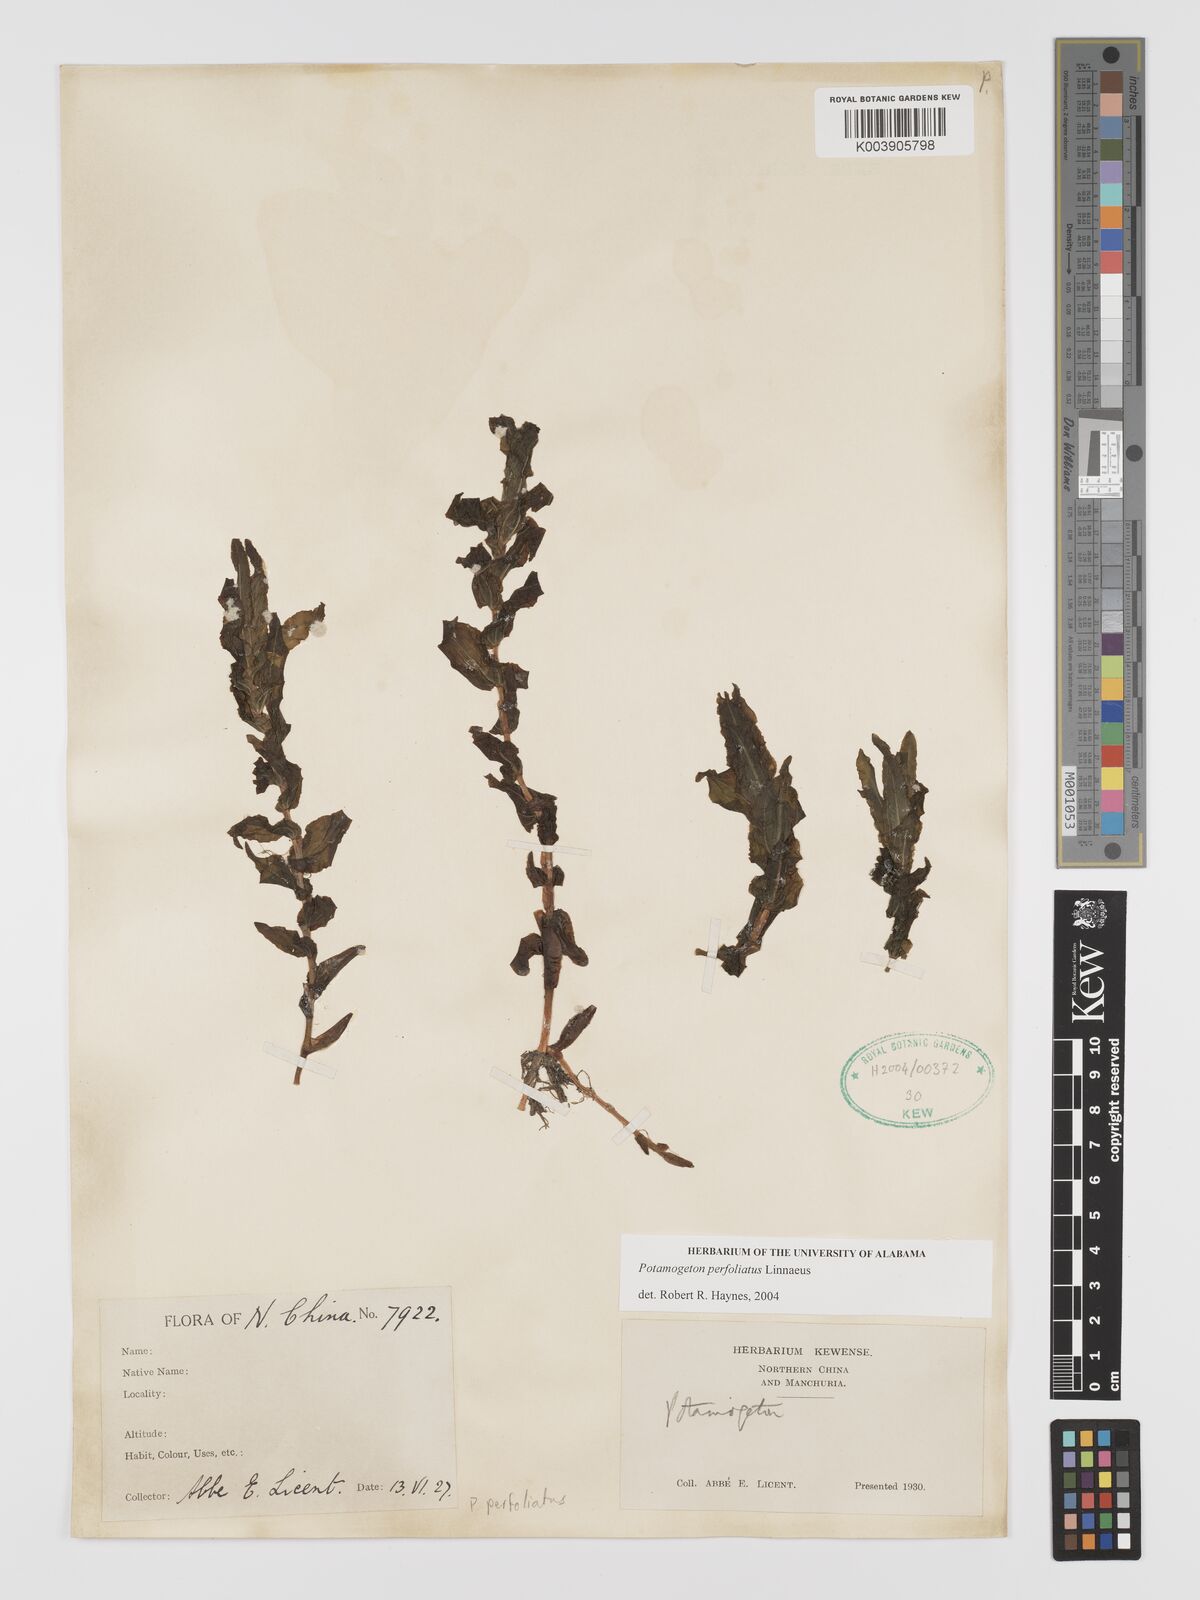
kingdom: Plantae
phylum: Tracheophyta
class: Liliopsida
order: Alismatales
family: Potamogetonaceae
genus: Potamogeton
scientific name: Potamogeton perfoliatus
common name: Perfoliate pondweed
